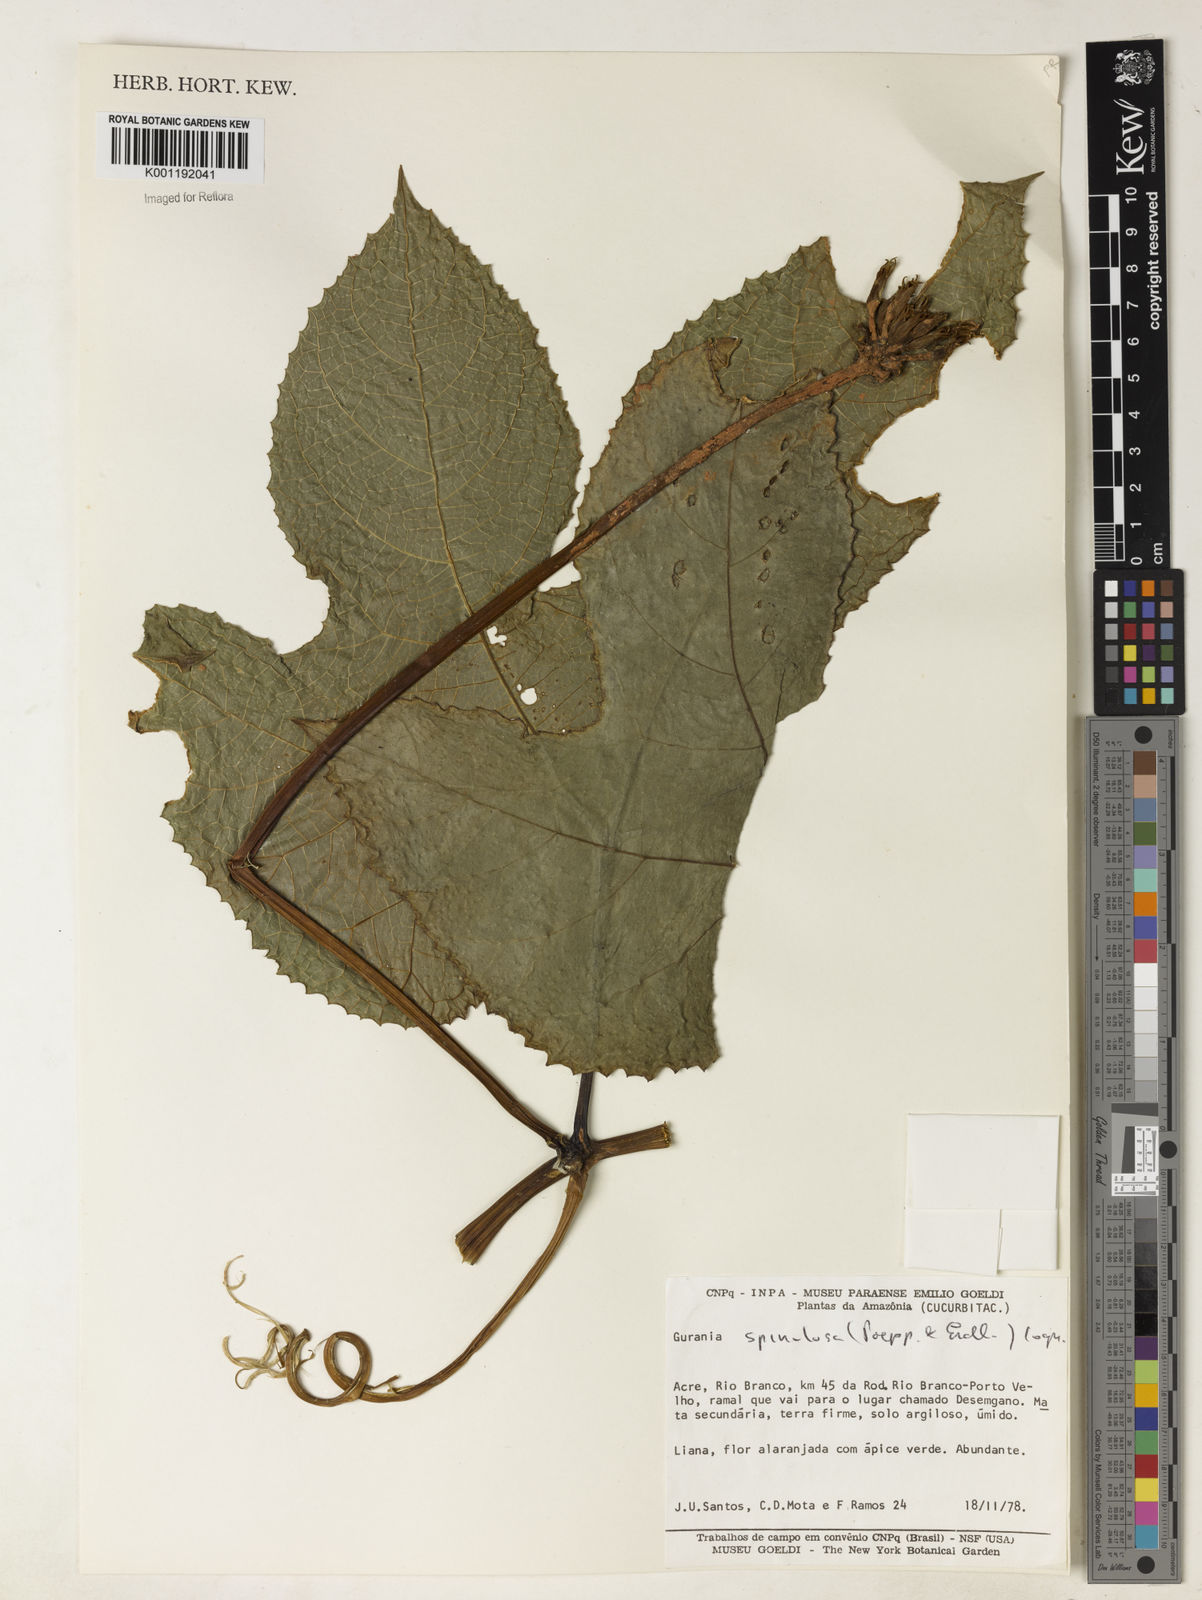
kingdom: Plantae
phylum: Tracheophyta
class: Magnoliopsida
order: Cucurbitales
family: Cucurbitaceae
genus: Gurania
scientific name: Gurania lobata
